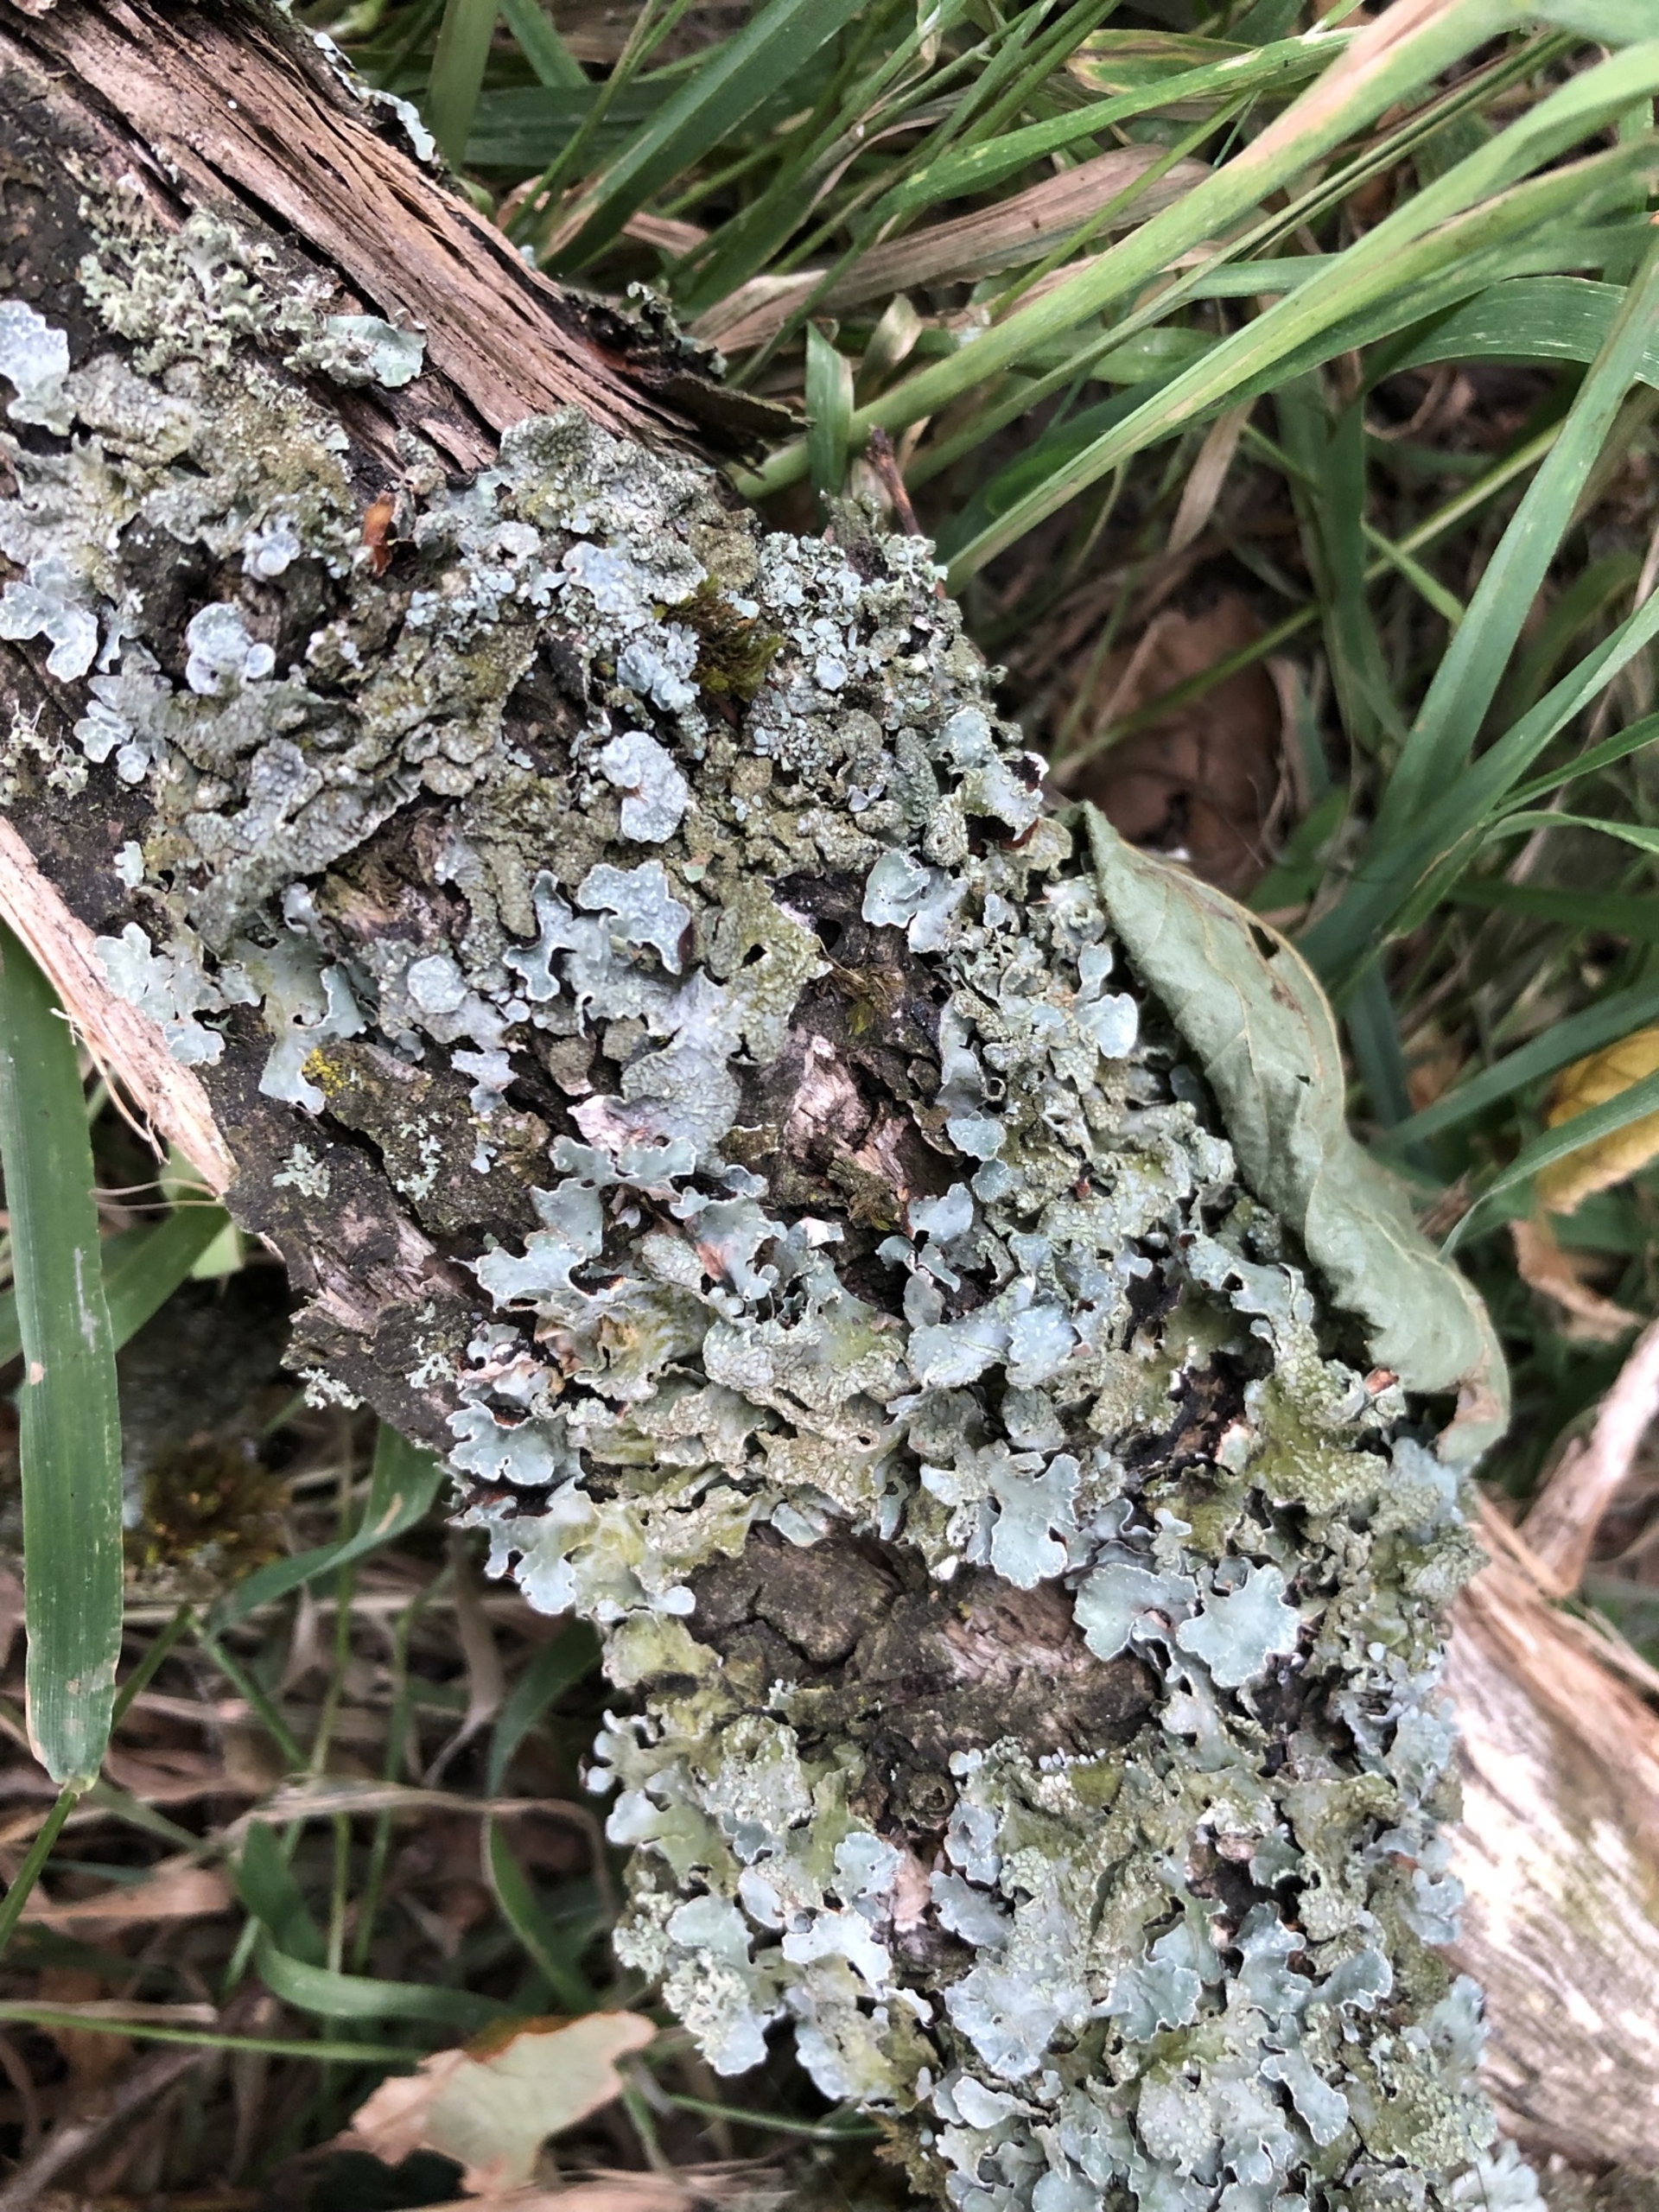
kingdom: Fungi
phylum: Ascomycota
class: Lecanoromycetes
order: Lecanorales
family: Parmeliaceae
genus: Parmelia
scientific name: Parmelia sulcata
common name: Rynket skållav
